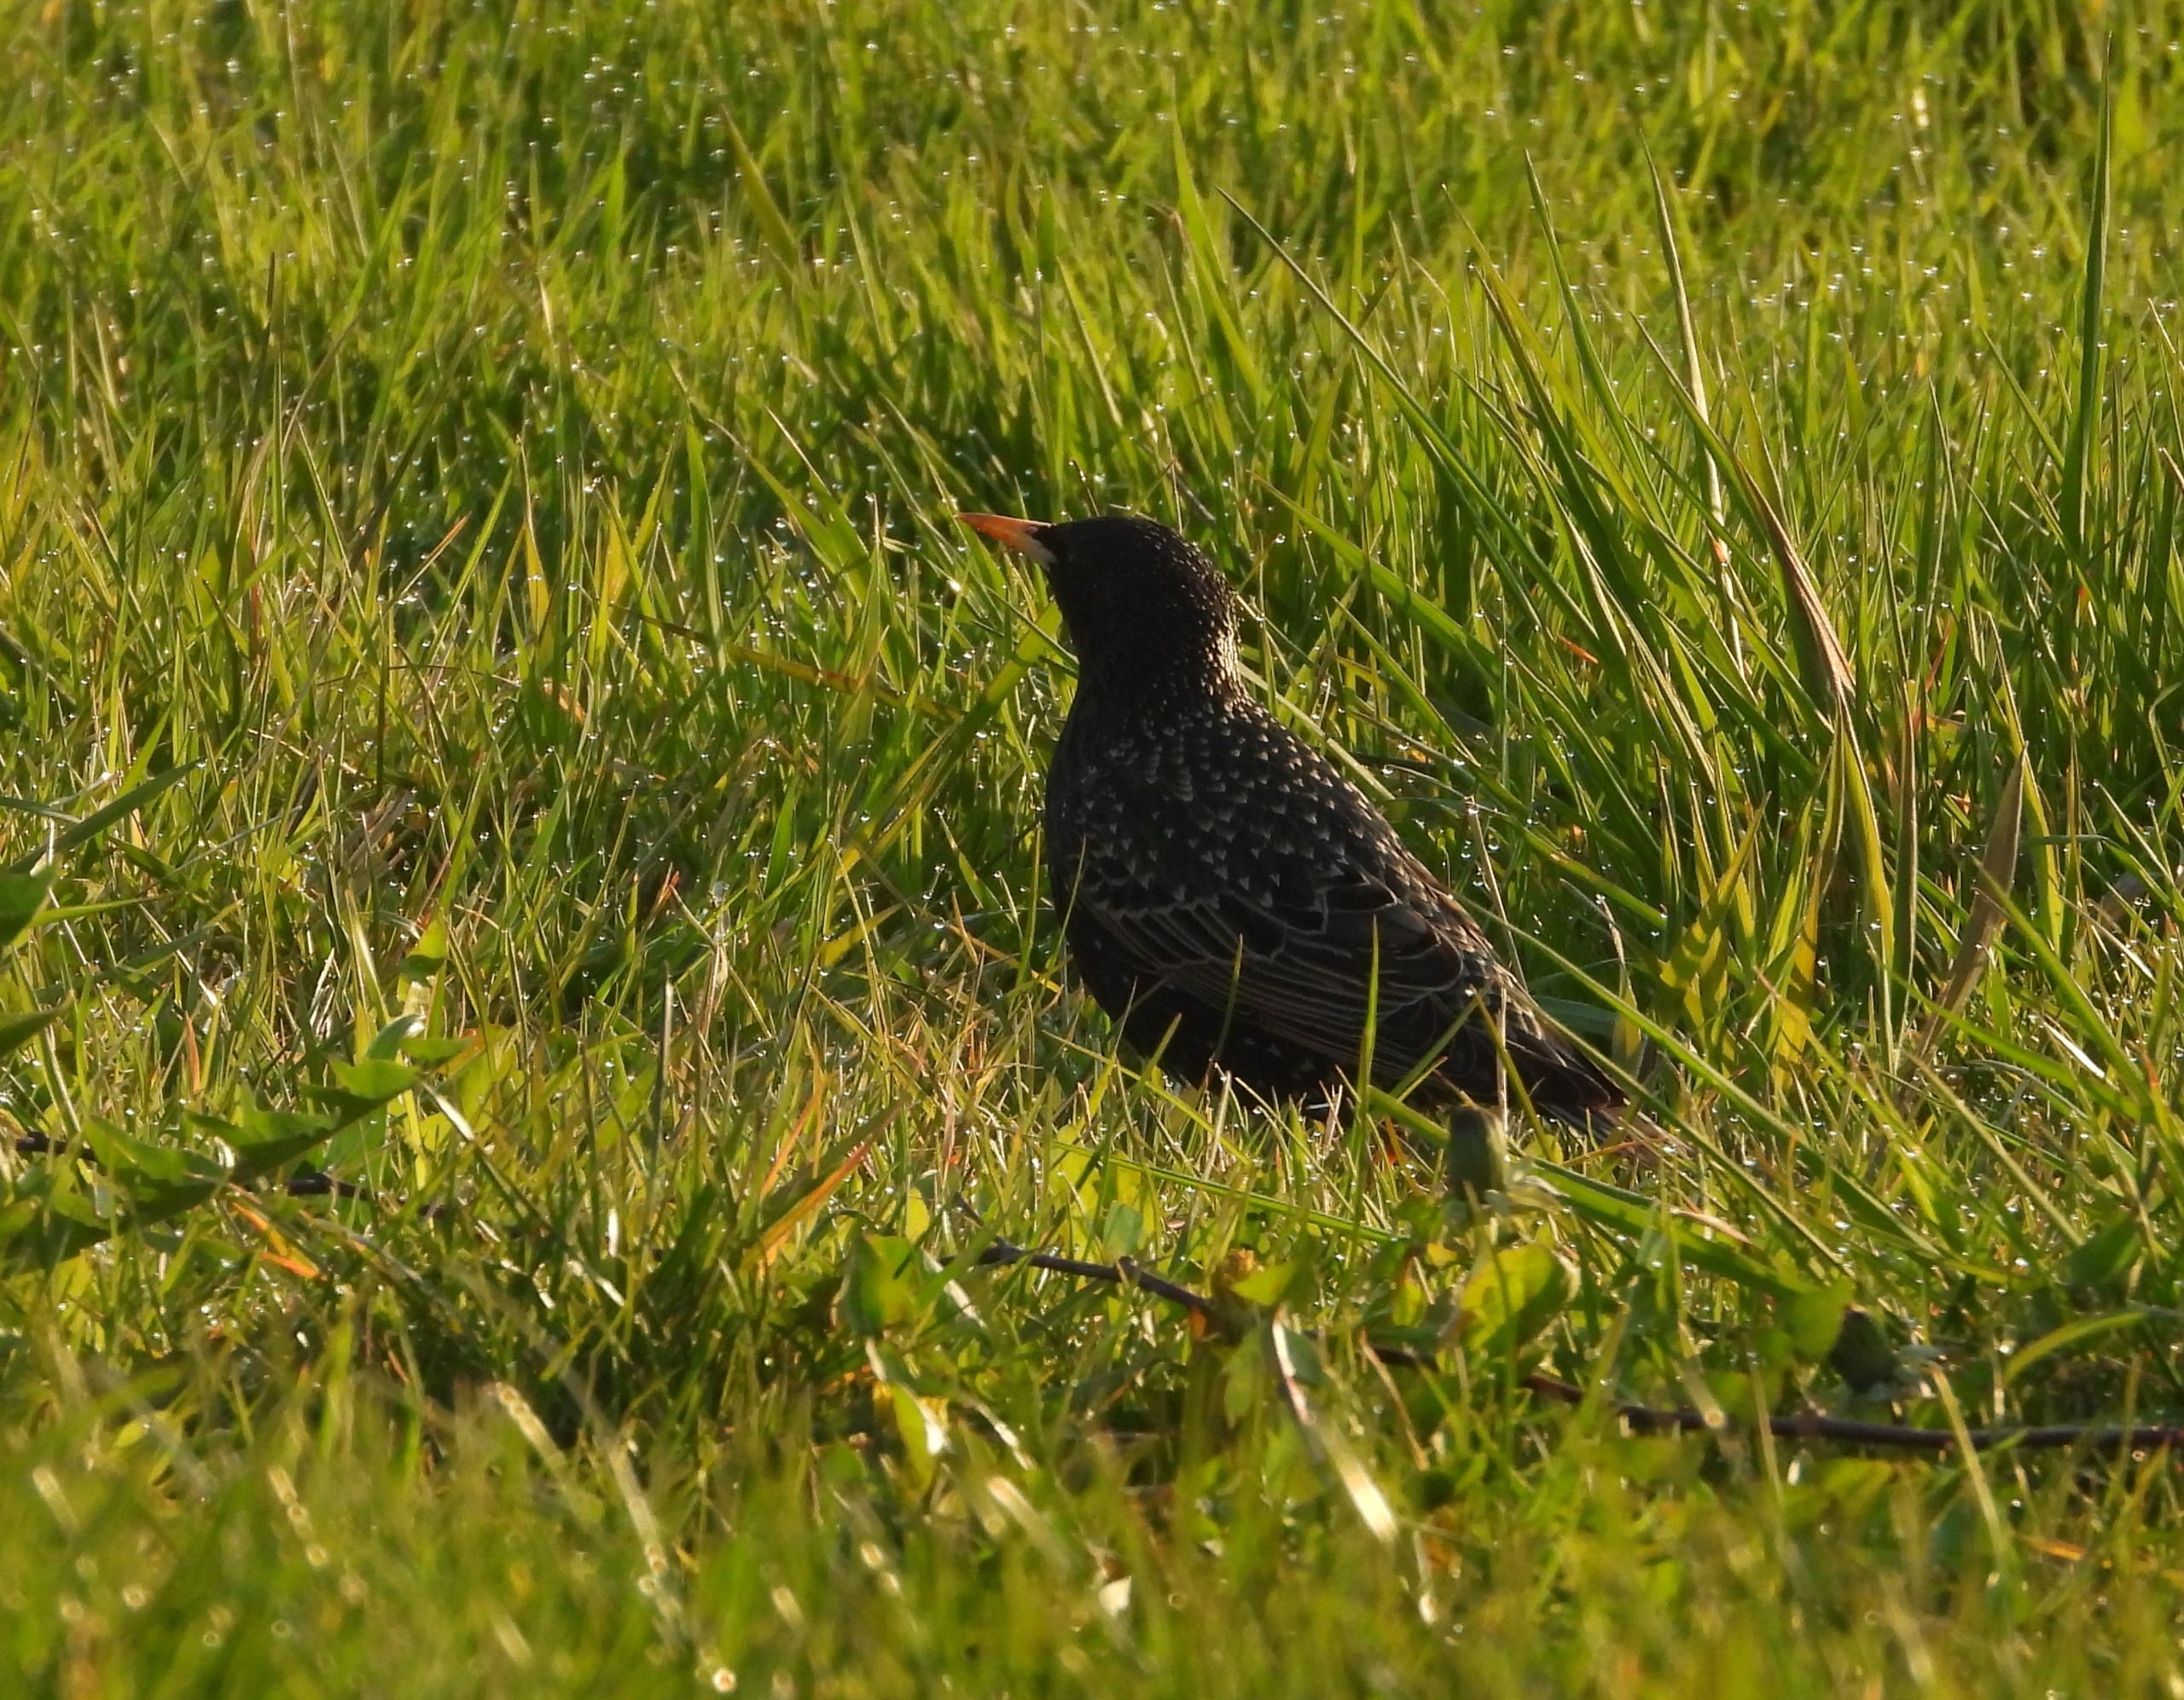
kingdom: Animalia
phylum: Chordata
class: Aves
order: Passeriformes
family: Sturnidae
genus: Sturnus
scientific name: Sturnus vulgaris
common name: Stær
